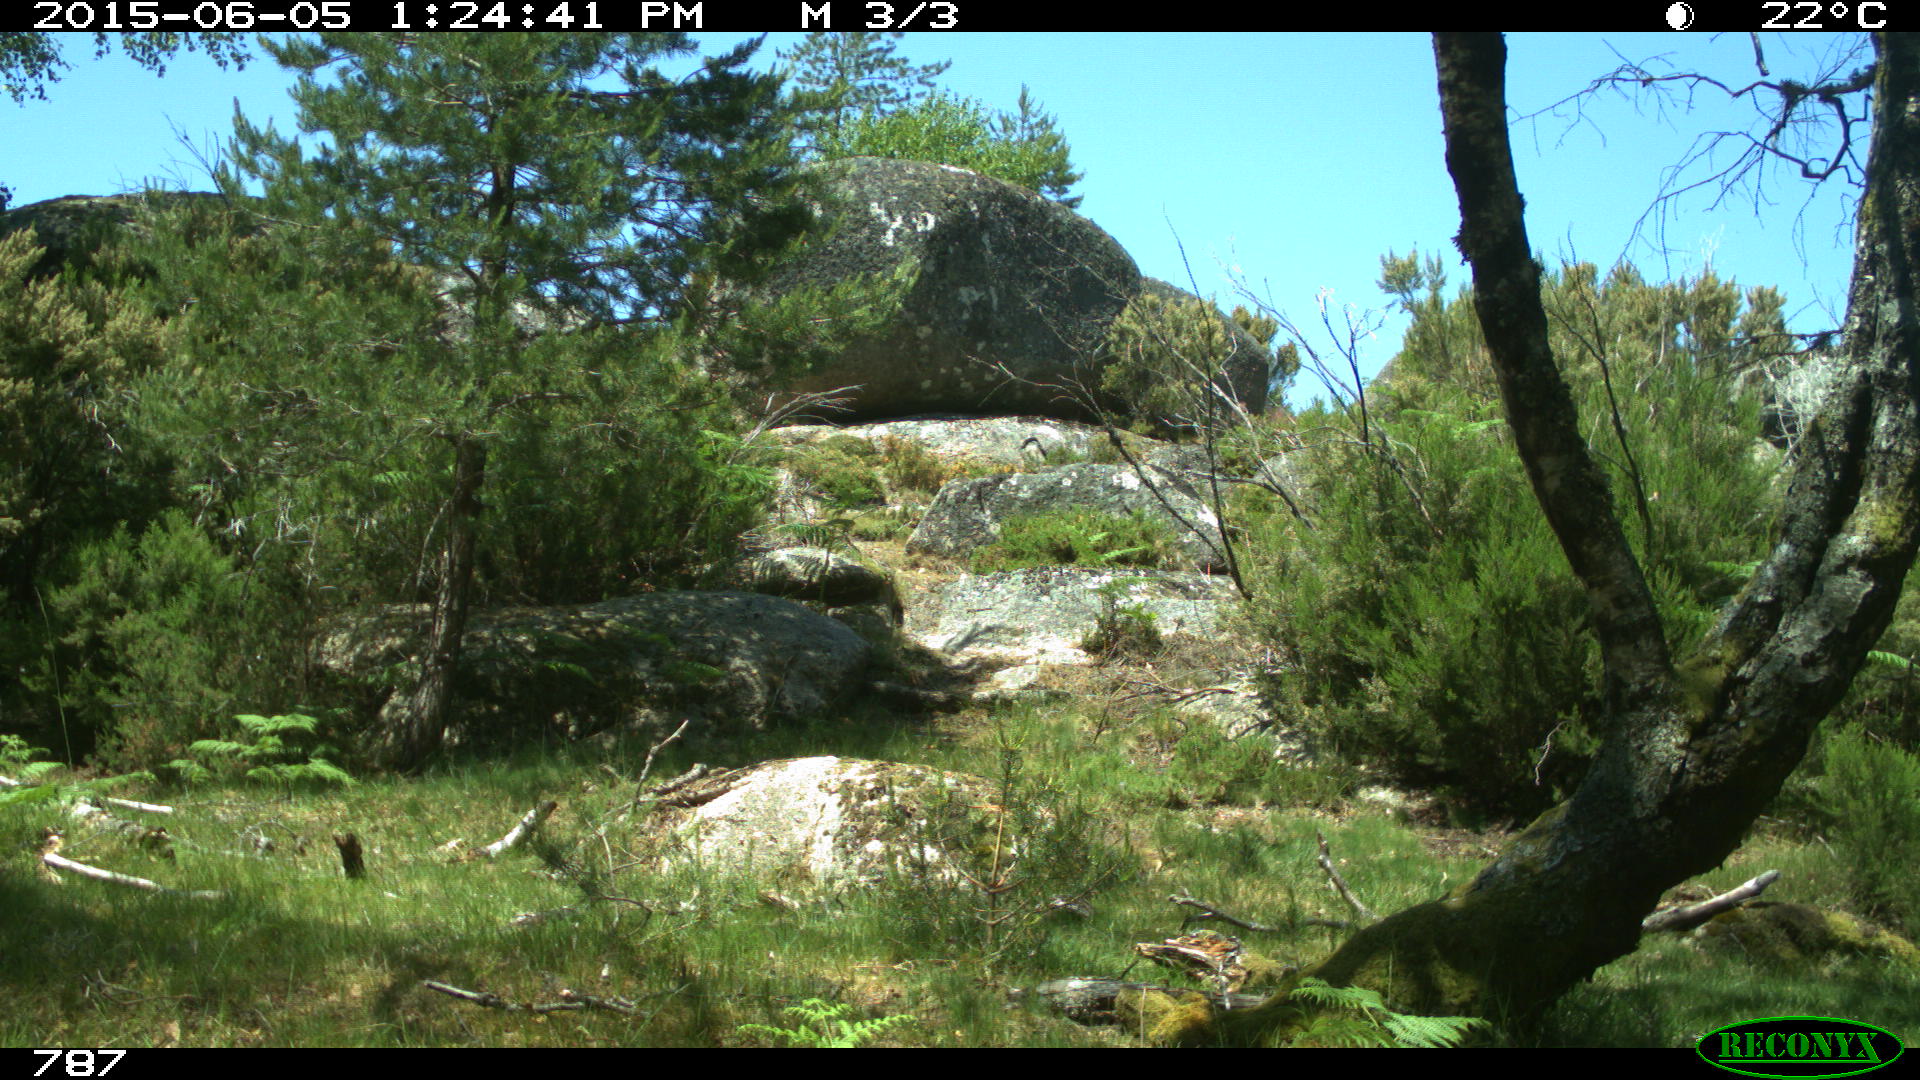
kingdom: Animalia
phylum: Chordata
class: Mammalia
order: Perissodactyla
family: Equidae
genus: Equus
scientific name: Equus caballus
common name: Horse
